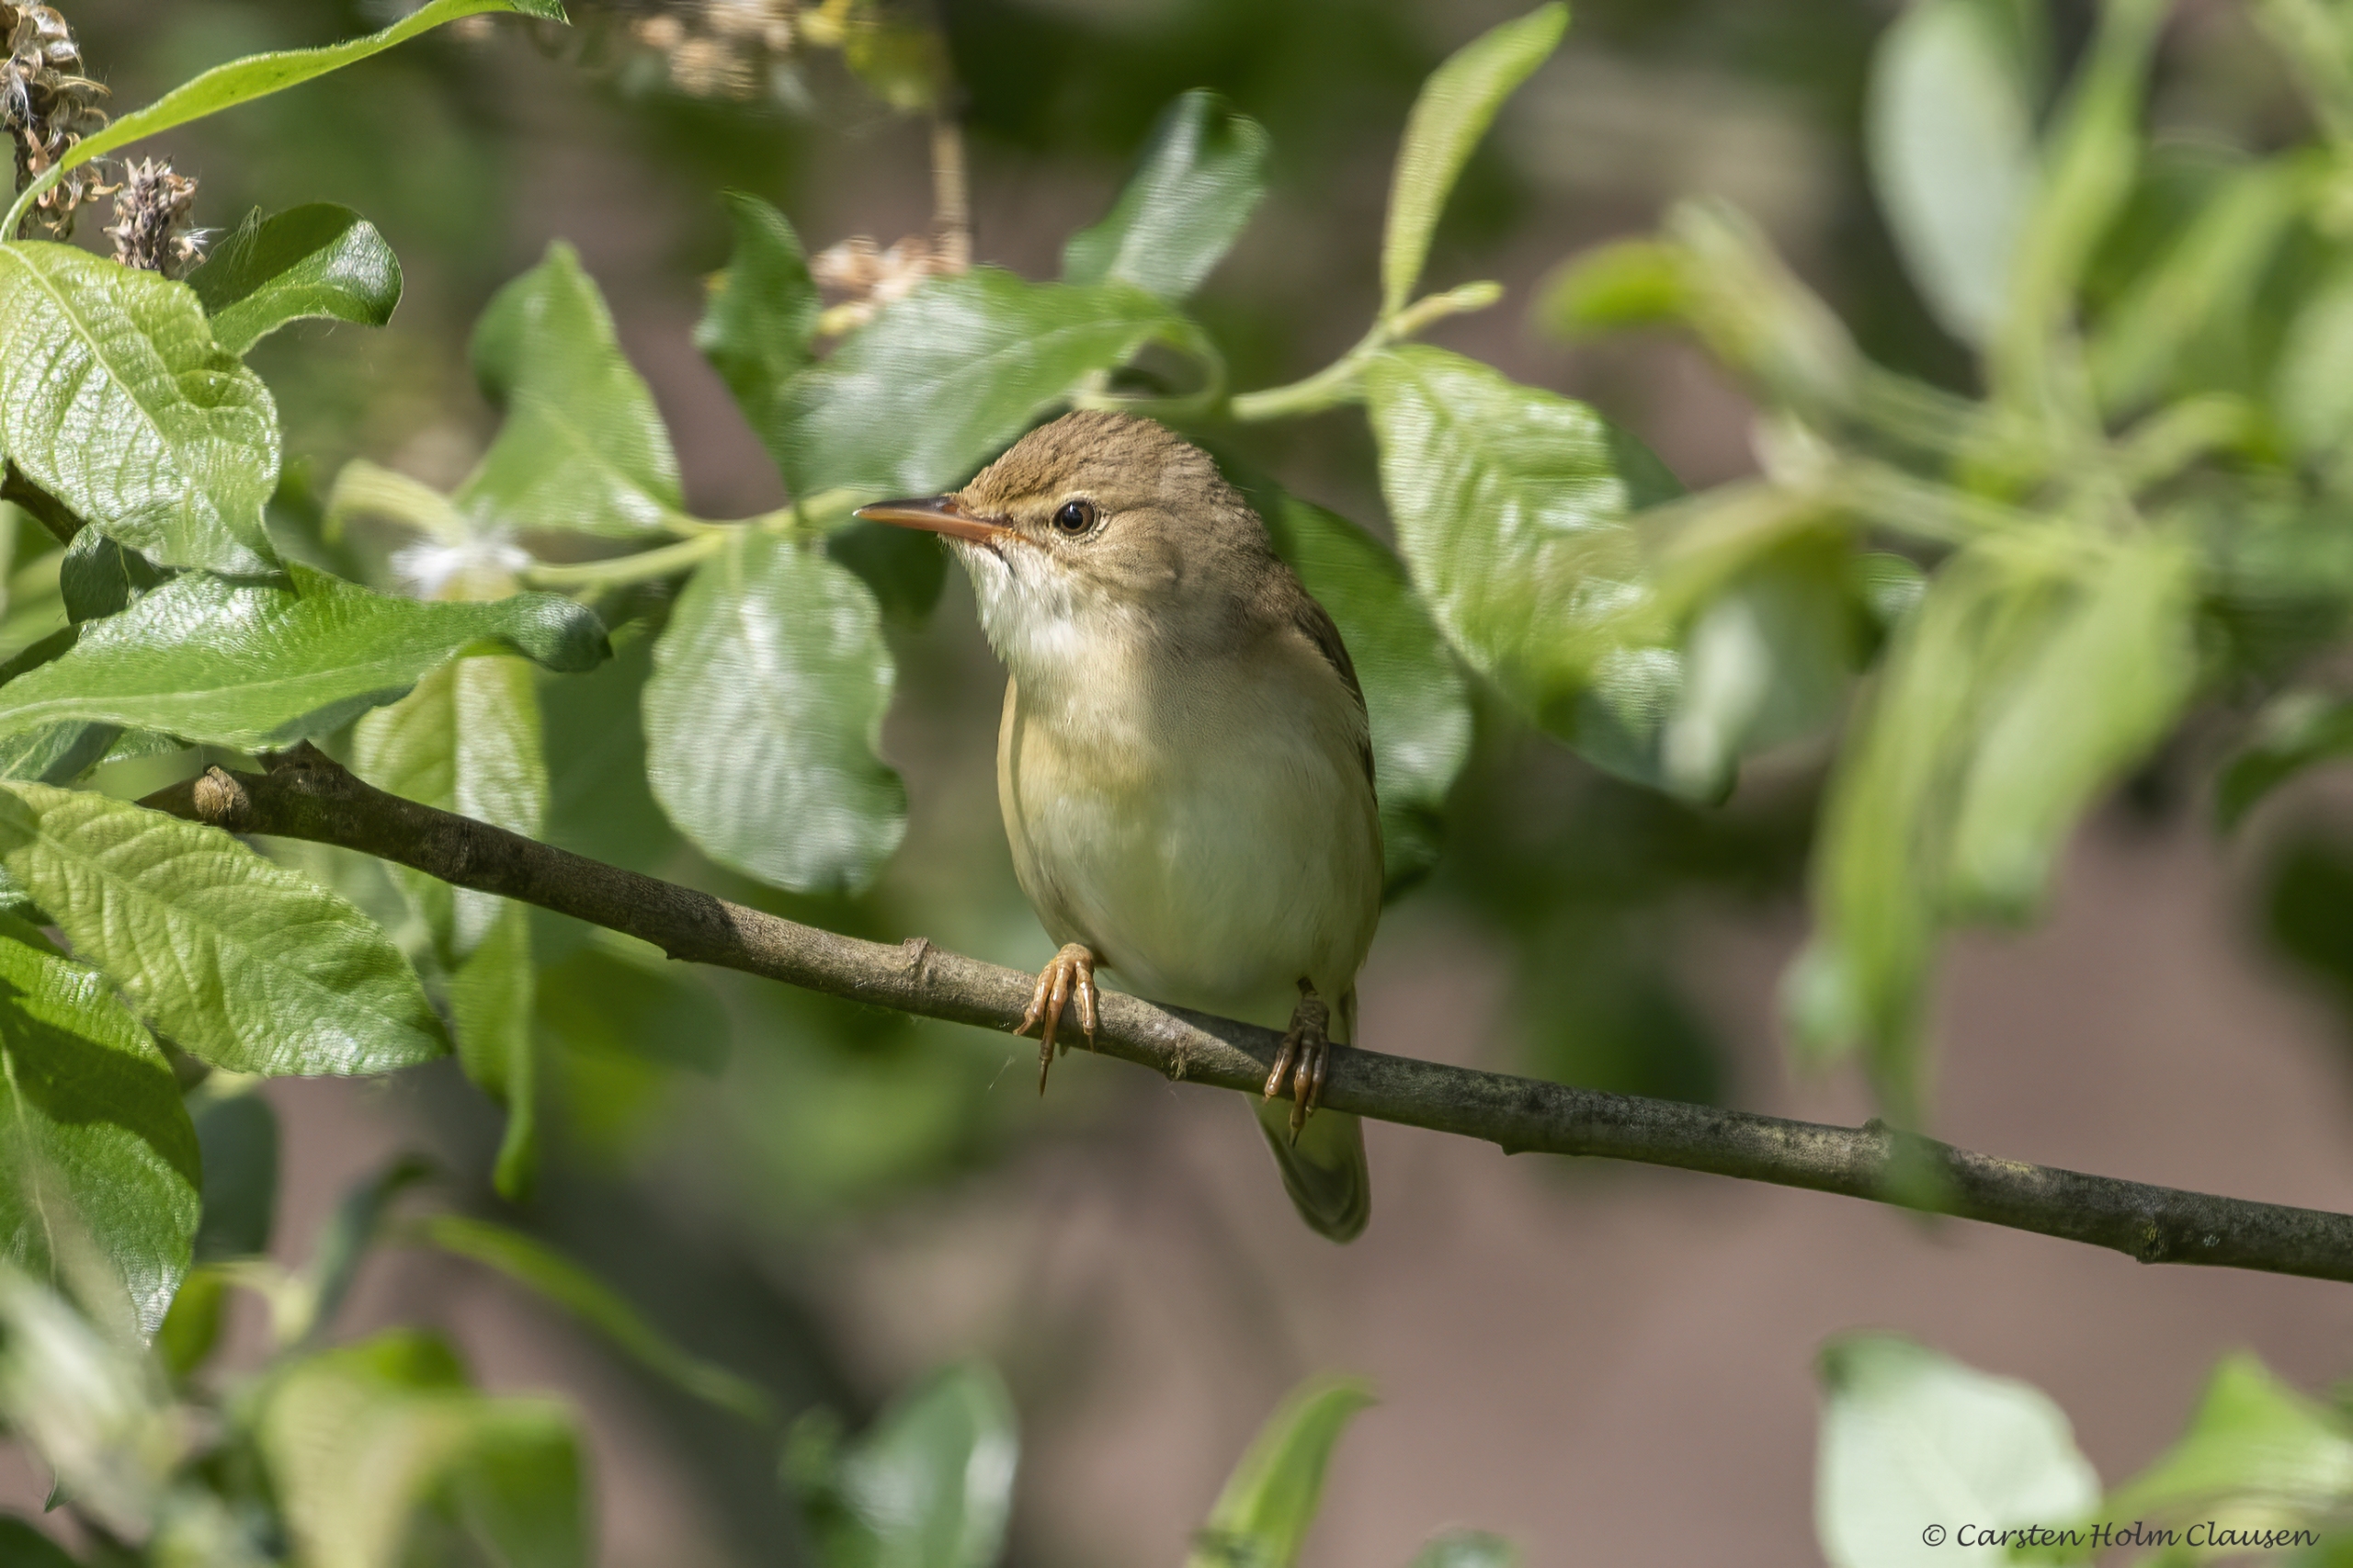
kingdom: Animalia
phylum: Chordata
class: Aves
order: Passeriformes
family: Acrocephalidae
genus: Acrocephalus
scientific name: Acrocephalus palustris
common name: Kærsanger
